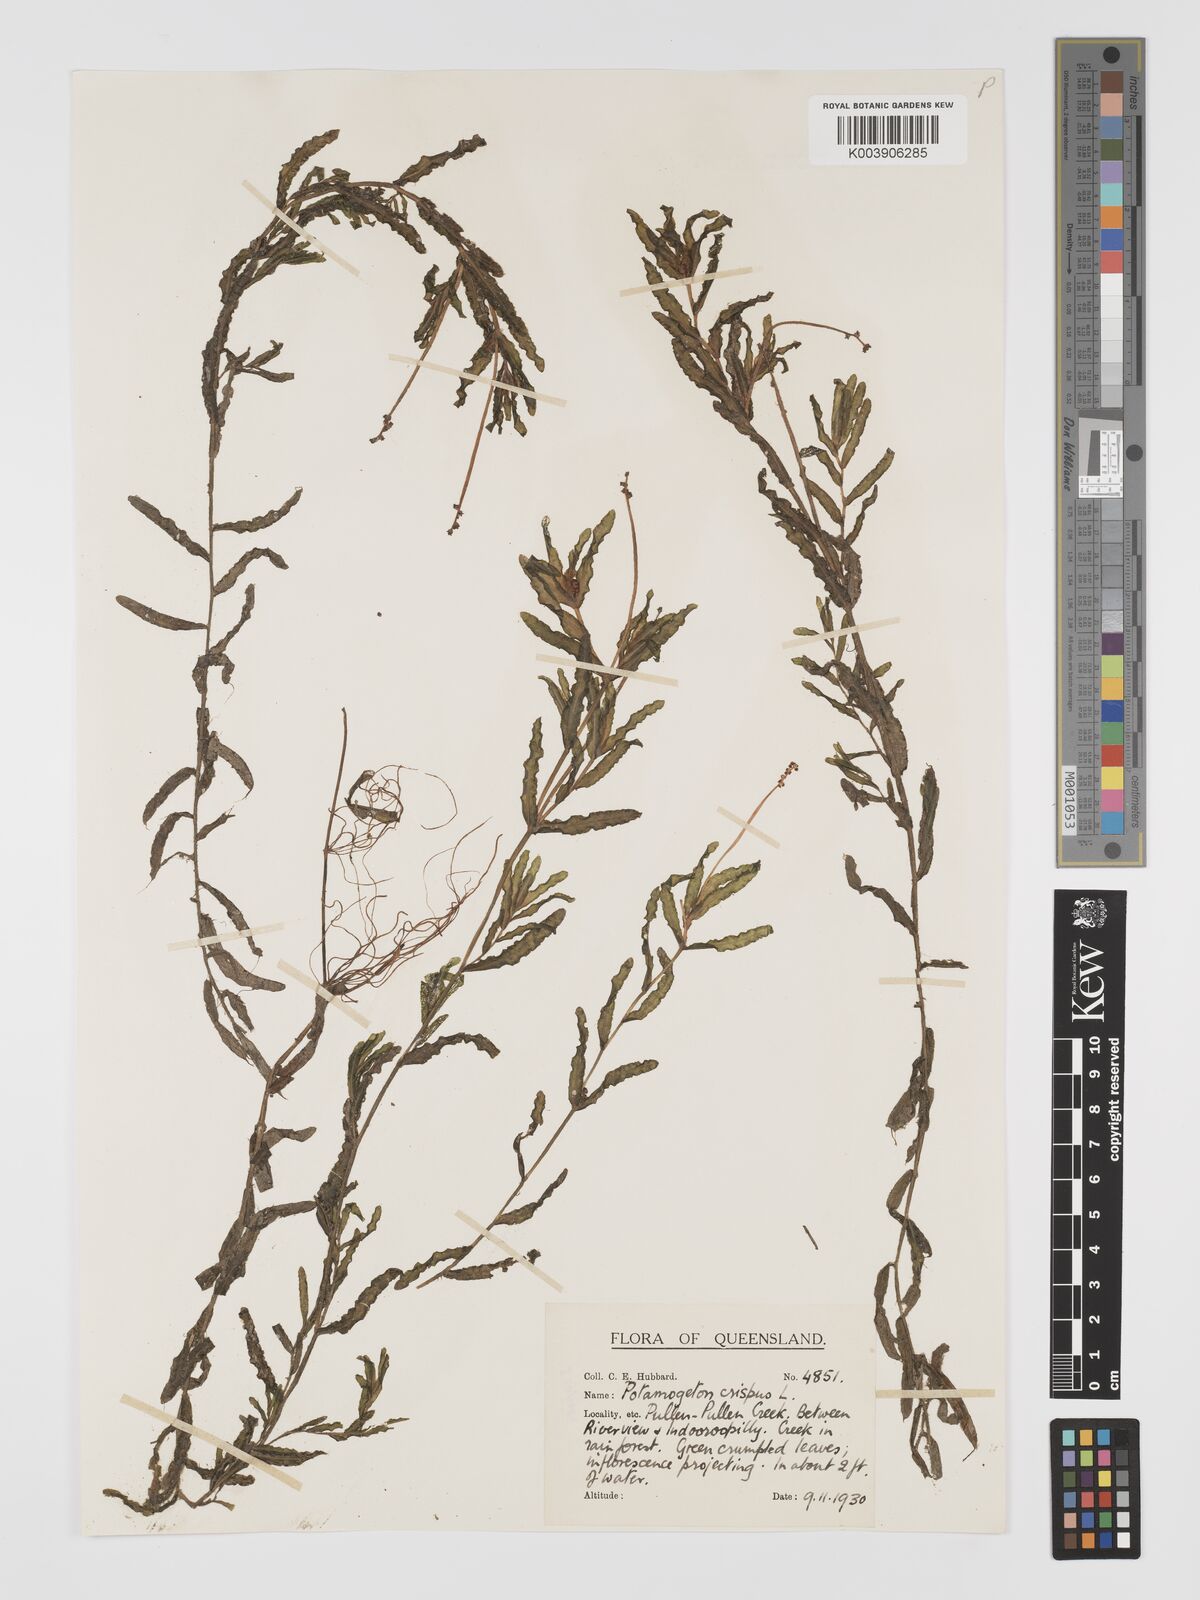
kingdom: Plantae
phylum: Tracheophyta
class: Liliopsida
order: Alismatales
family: Potamogetonaceae
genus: Potamogeton
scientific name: Potamogeton crispus
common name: Curled pondweed
